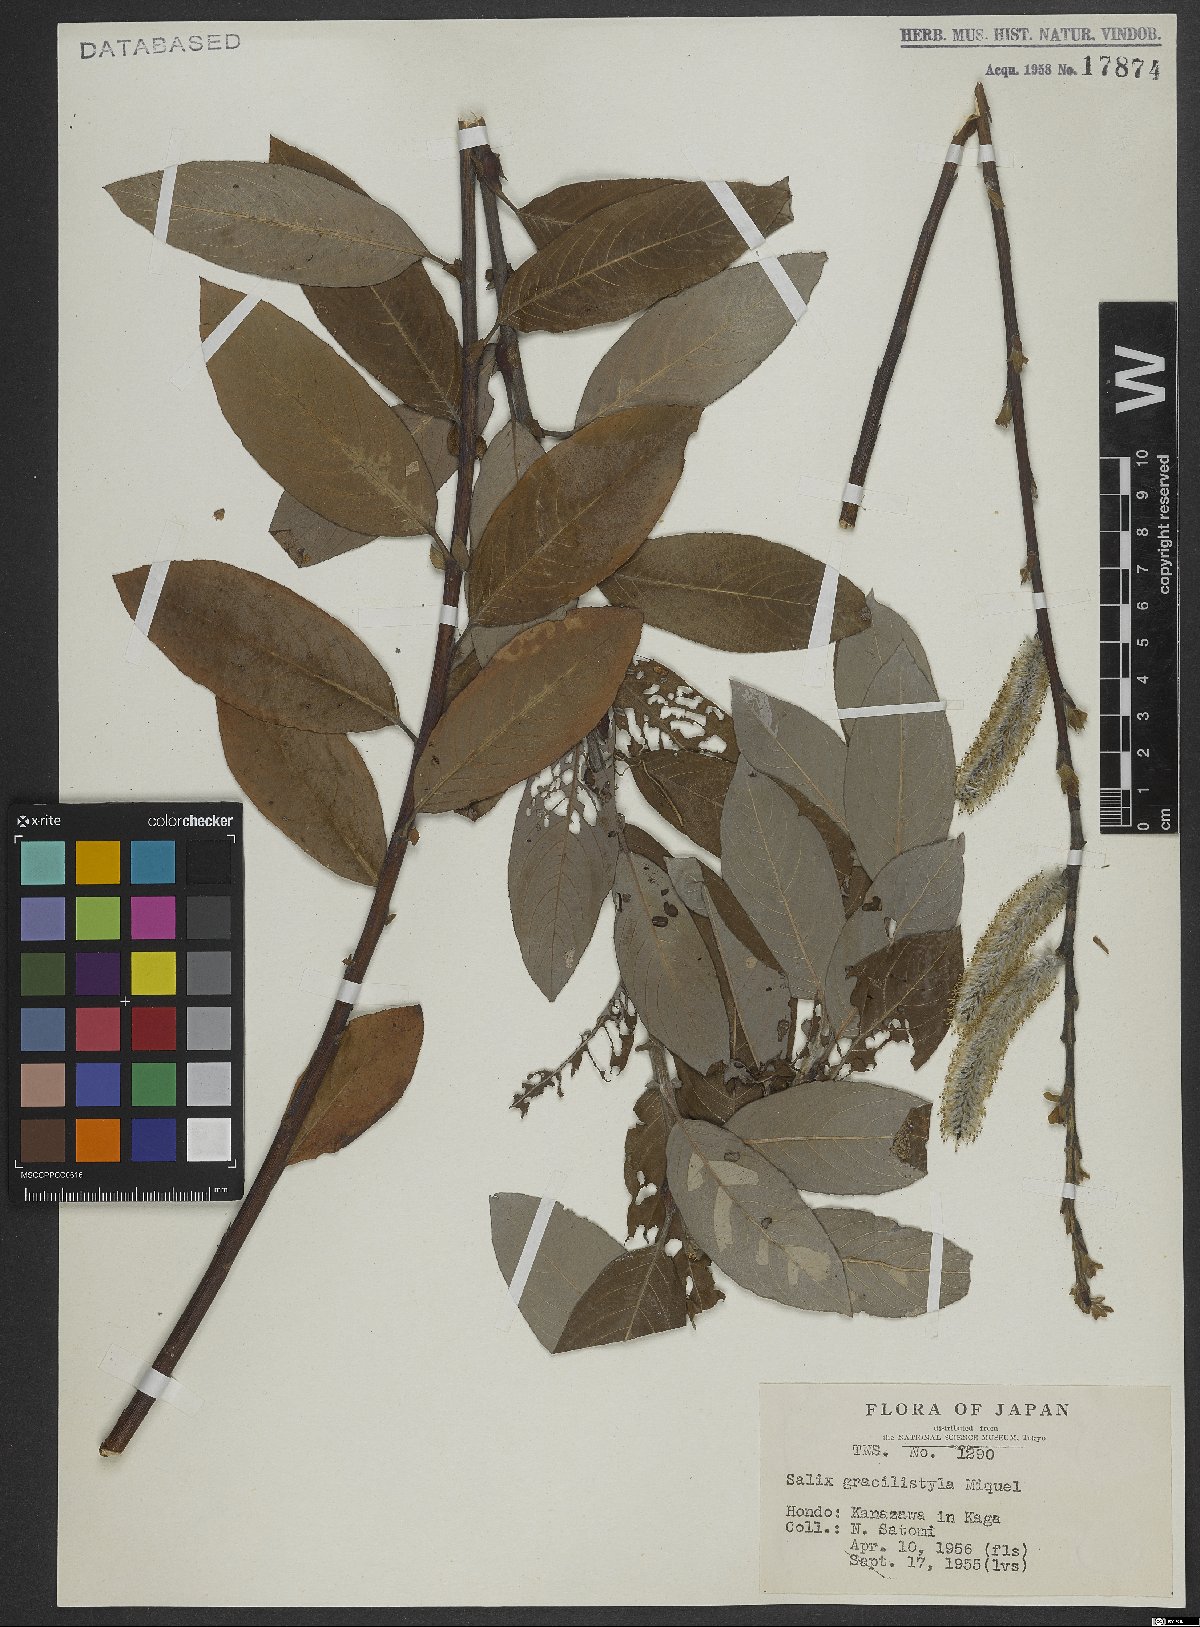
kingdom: Plantae
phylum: Tracheophyta
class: Magnoliopsida
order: Malpighiales
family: Salicaceae
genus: Salix
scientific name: Salix gracilistyla
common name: Rose-gold pussy willow
